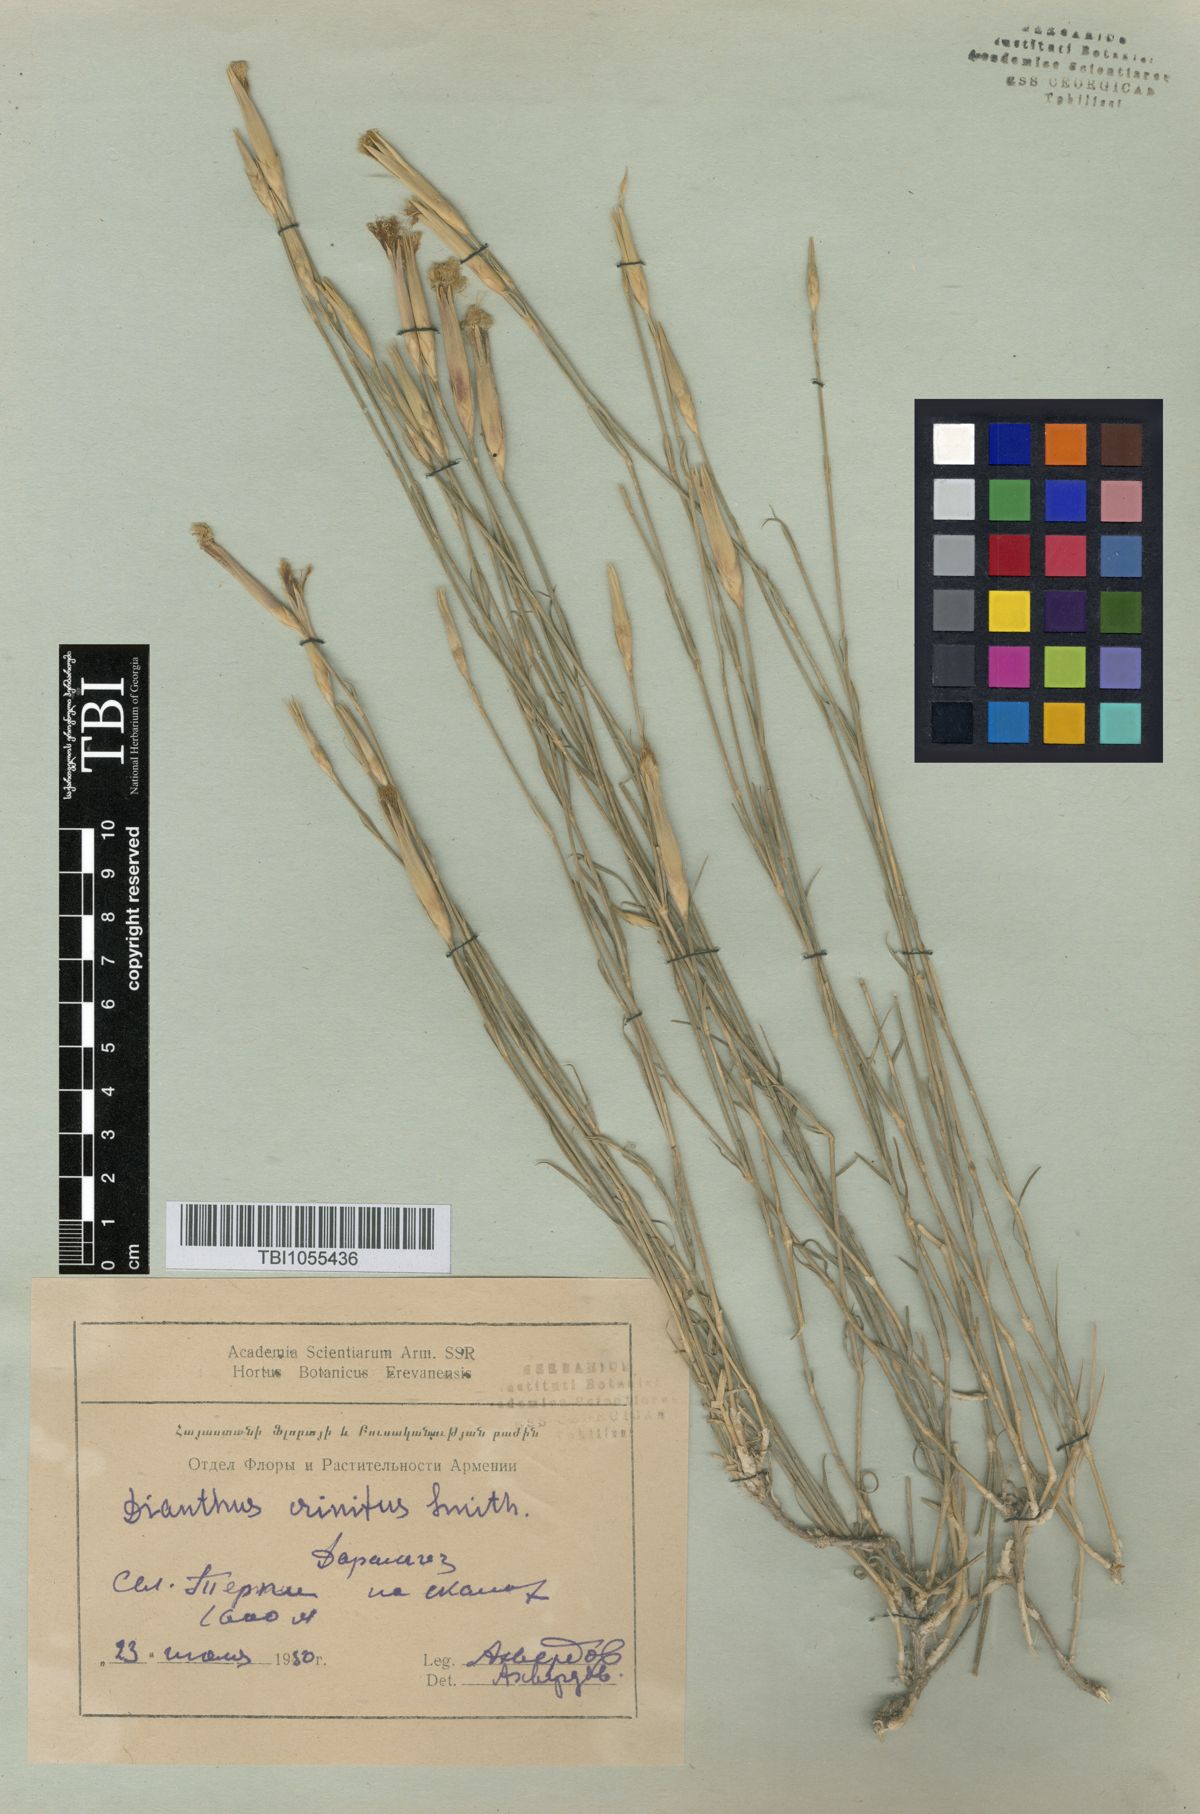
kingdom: Plantae
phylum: Tracheophyta
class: Magnoliopsida
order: Caryophyllales
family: Caryophyllaceae
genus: Dianthus
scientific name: Dianthus crinitus
